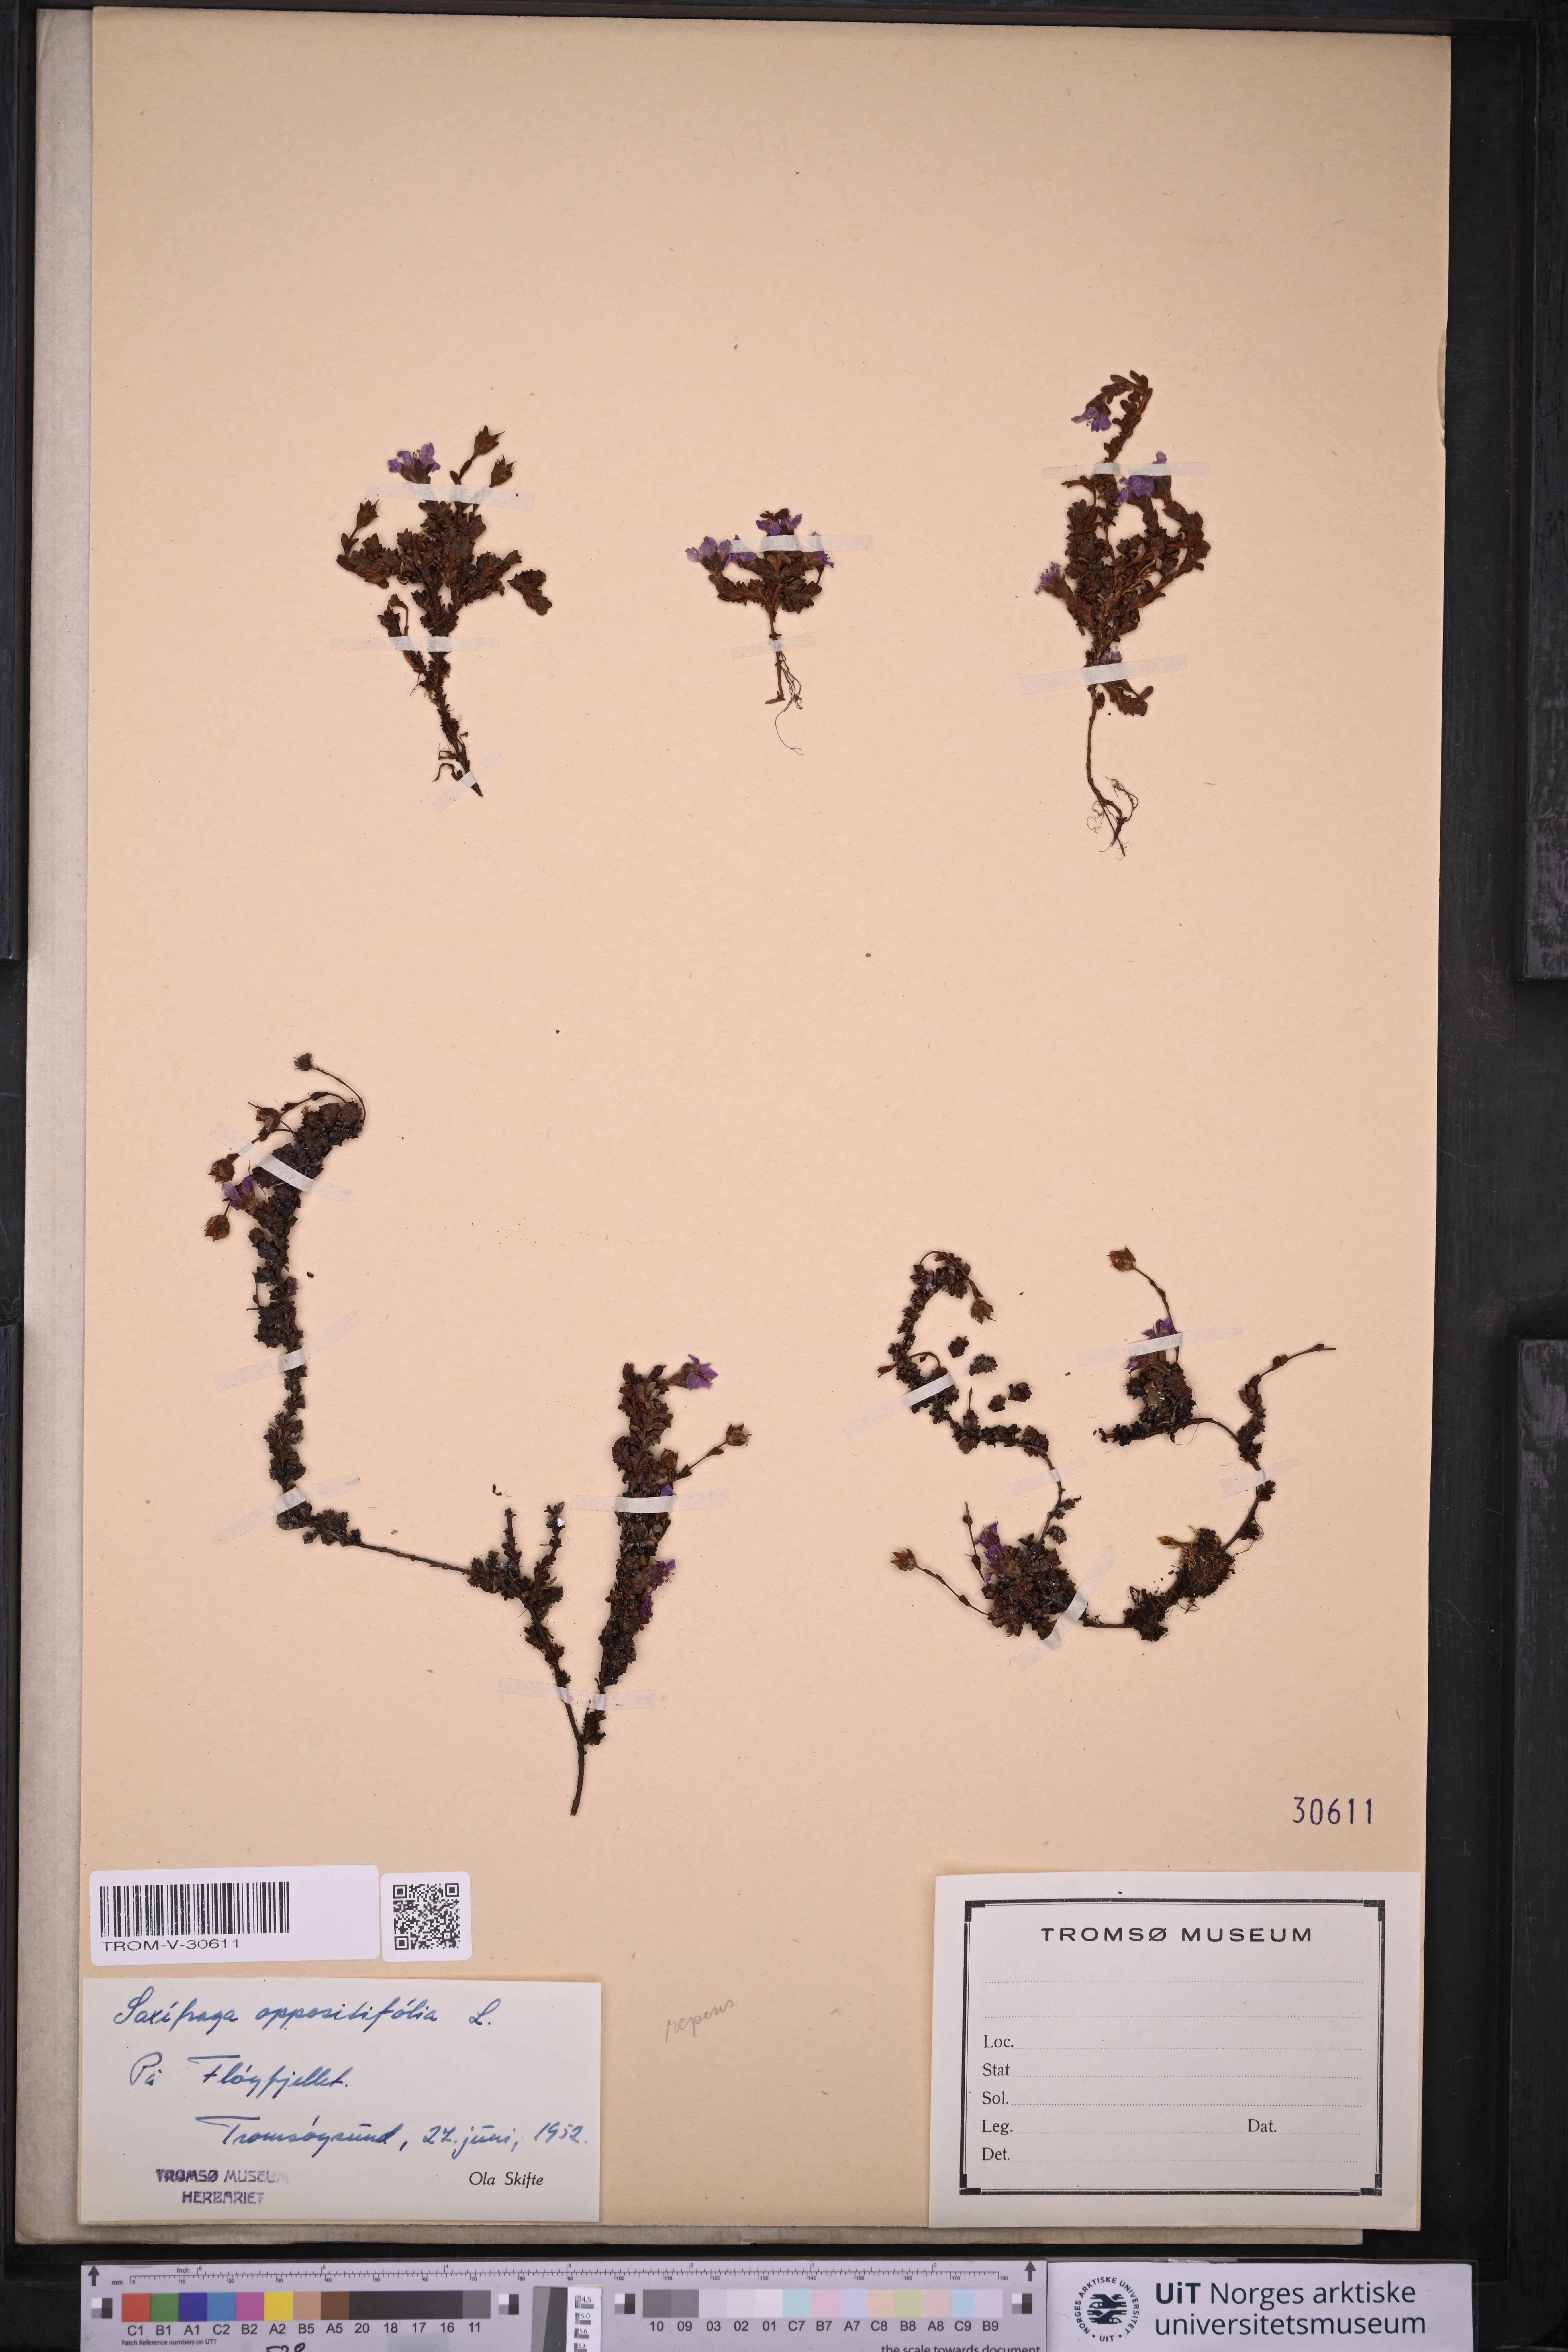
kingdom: Plantae
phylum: Tracheophyta
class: Magnoliopsida
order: Saxifragales
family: Saxifragaceae
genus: Saxifraga
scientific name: Saxifraga oppositifolia
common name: Purple saxifrage
